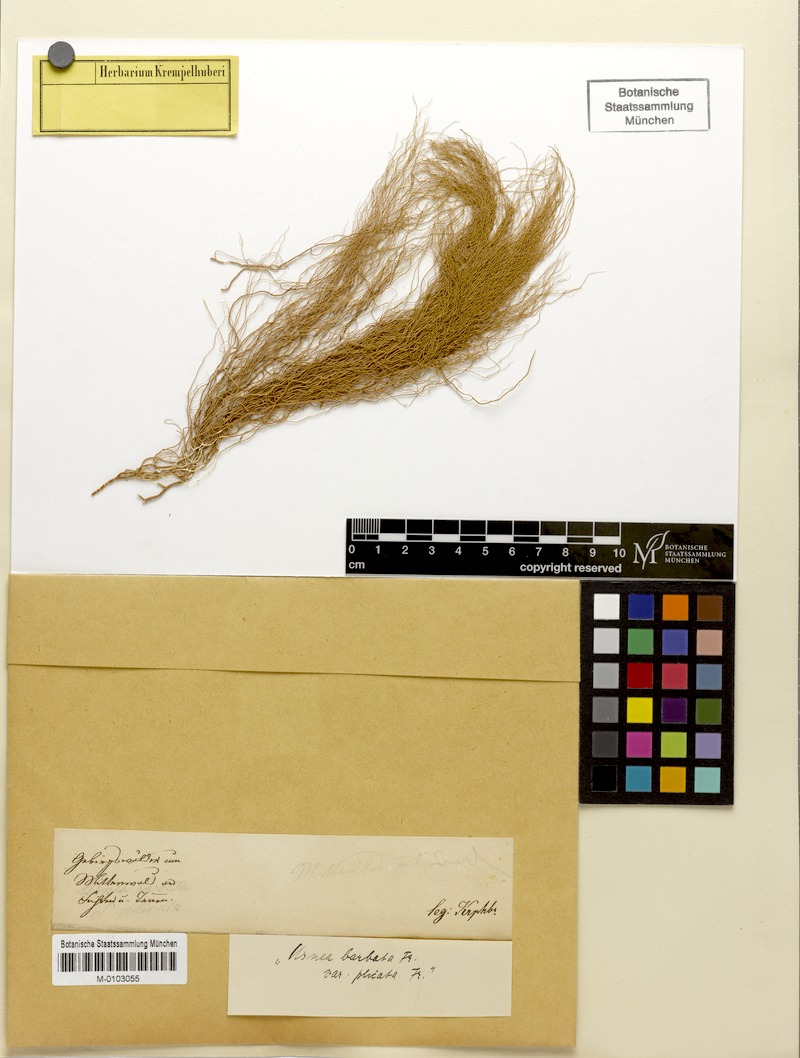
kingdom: Fungi
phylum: Ascomycota
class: Lecanoromycetes
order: Lecanorales
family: Parmeliaceae
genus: Usnea
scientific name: Usnea scabrata
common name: Straw beard lichen
